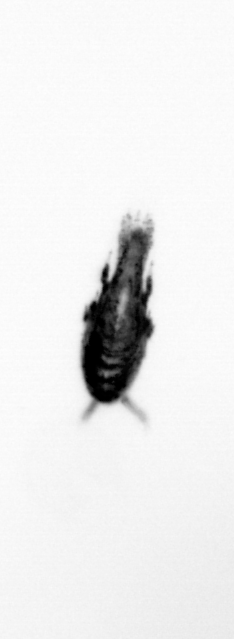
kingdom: Animalia
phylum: Arthropoda
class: Copepoda
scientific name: Copepoda
